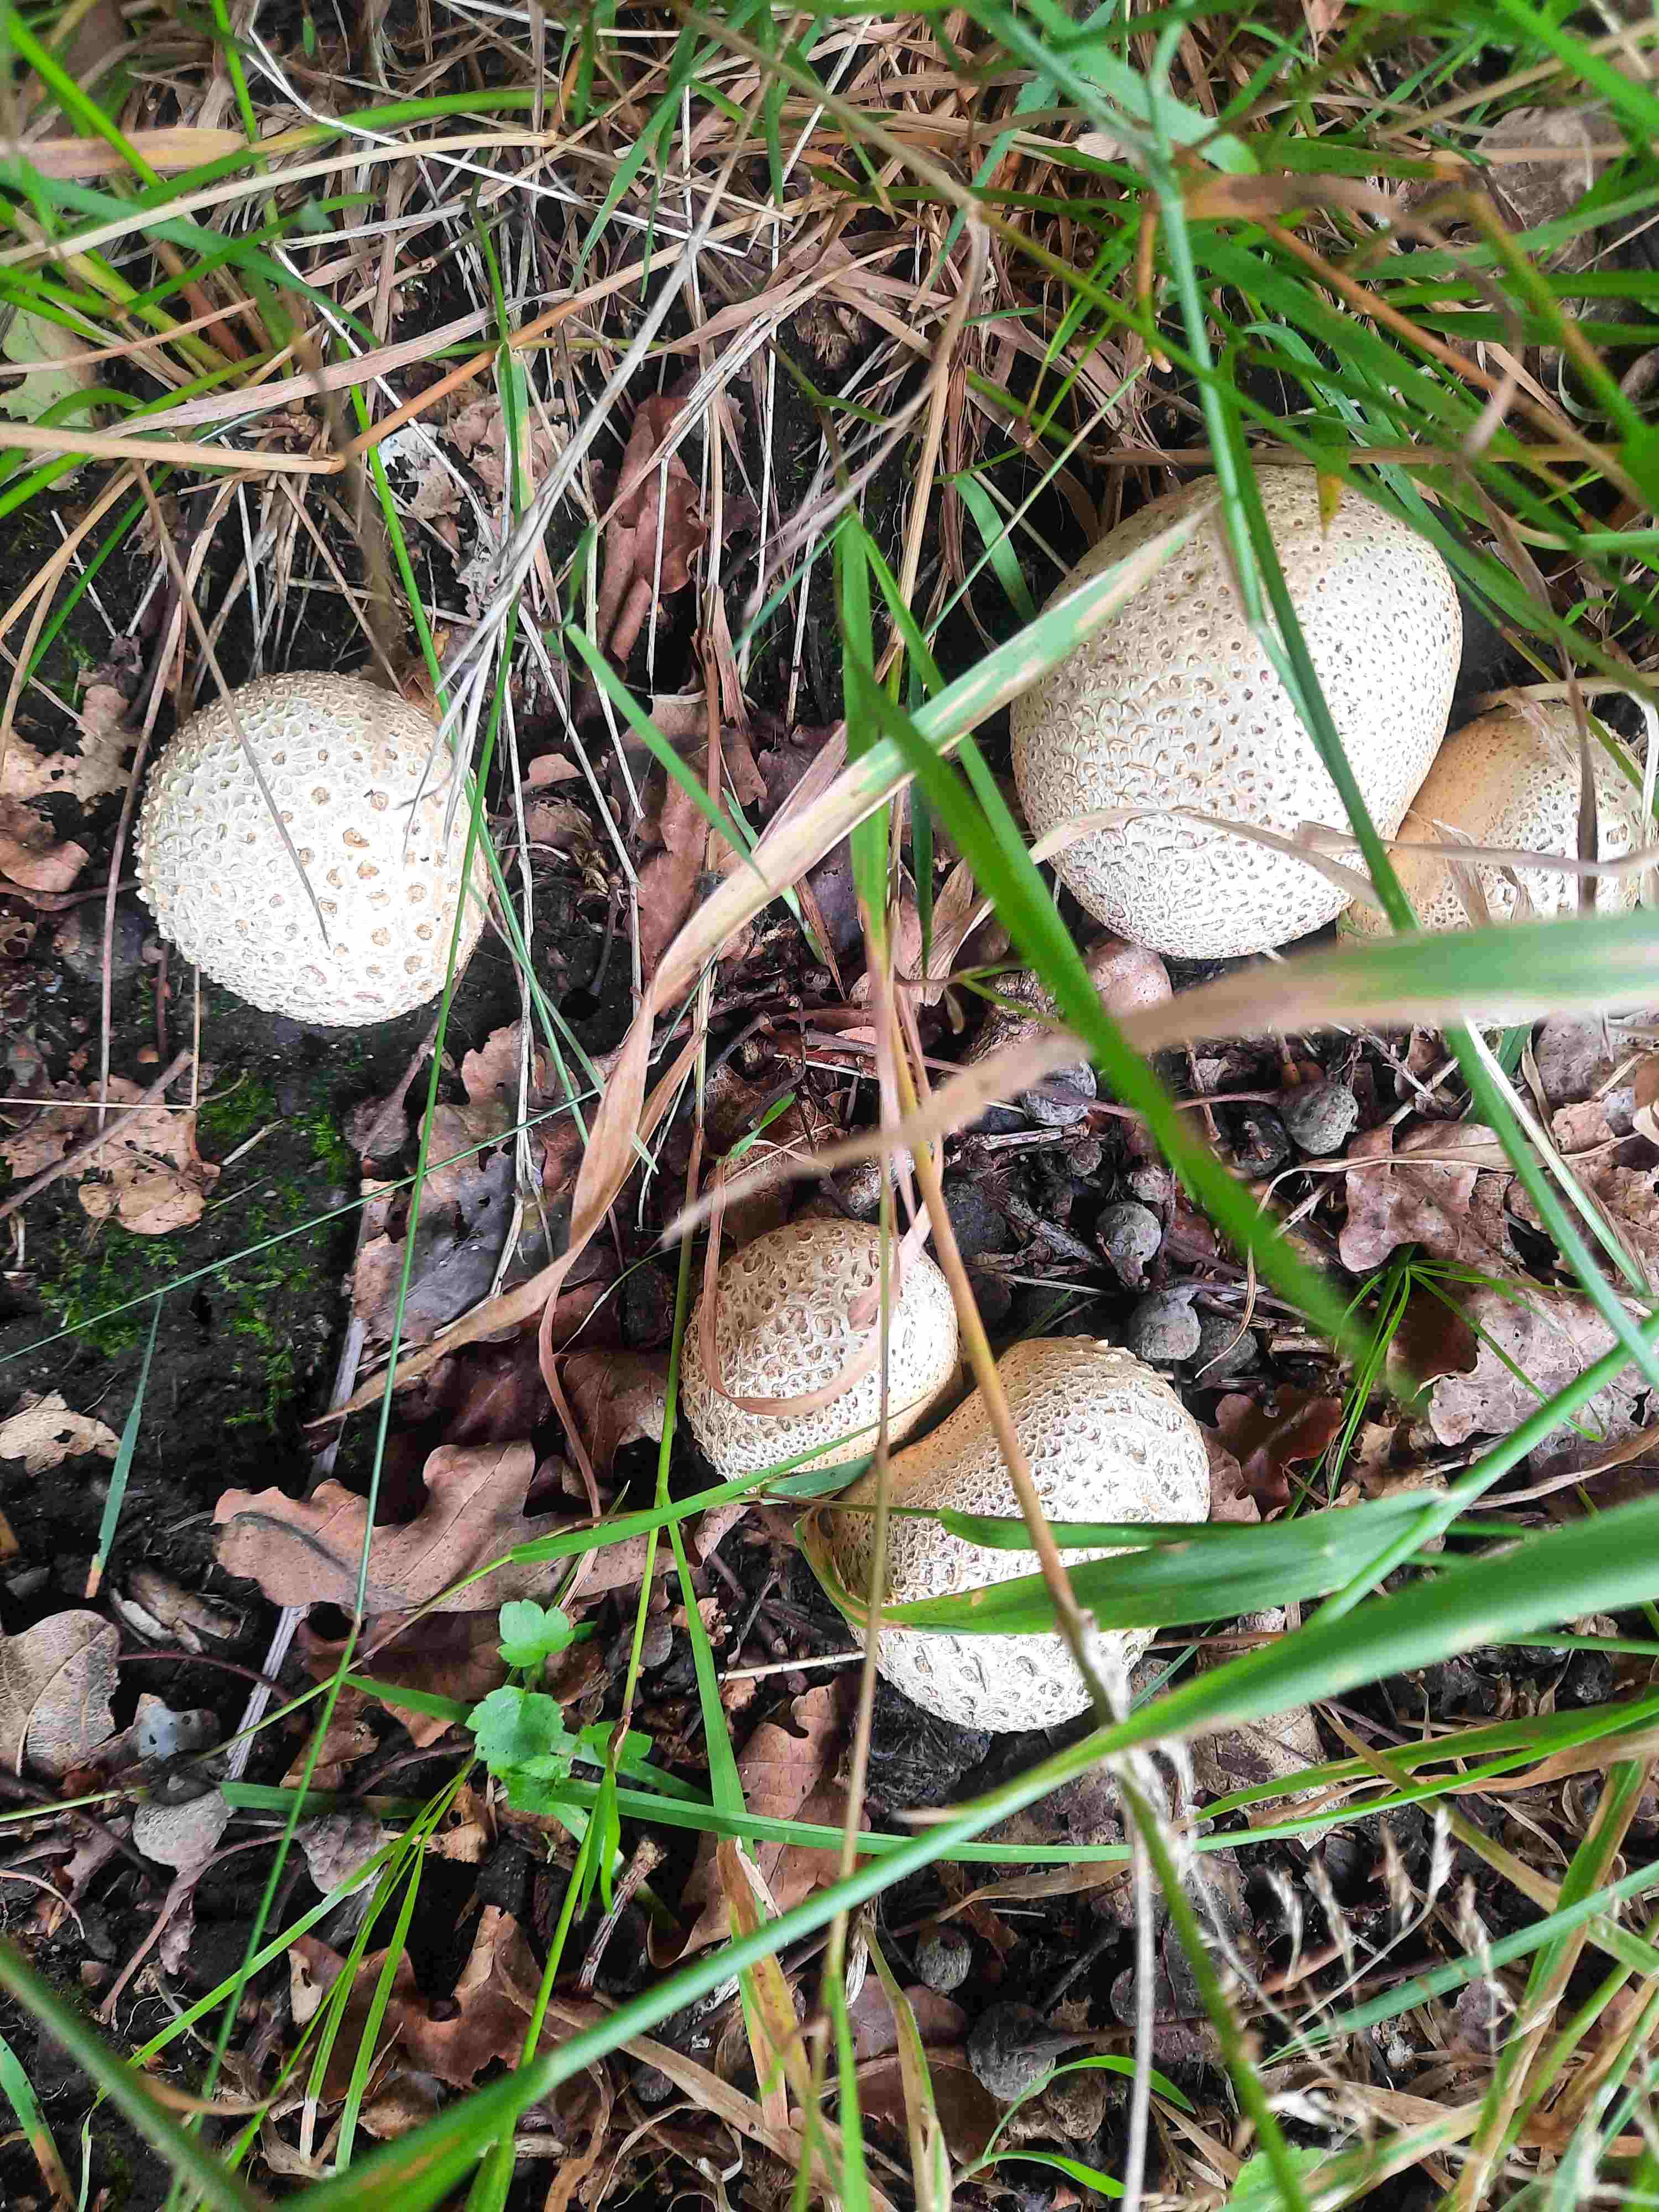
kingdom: Fungi
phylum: Basidiomycota
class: Agaricomycetes
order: Boletales
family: Sclerodermataceae
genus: Scleroderma
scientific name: Scleroderma citrinum
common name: almindelig bruskbold
